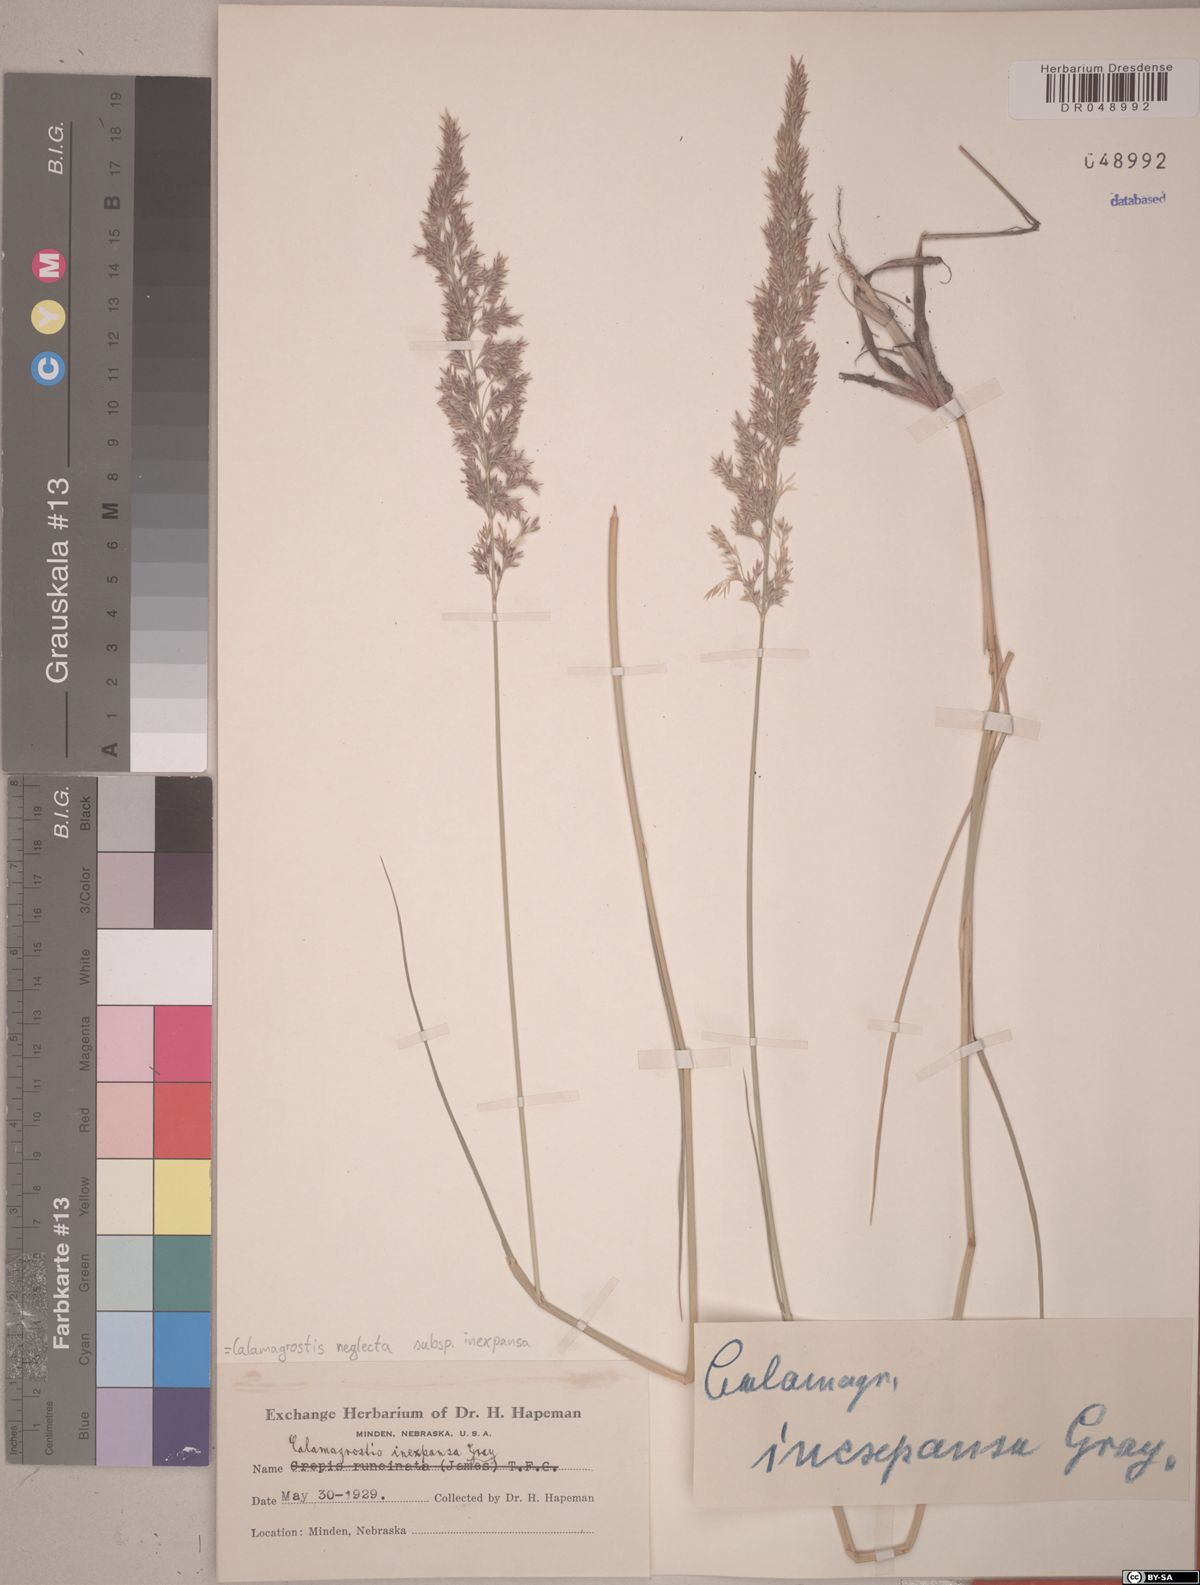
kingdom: Plantae
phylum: Tracheophyta
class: Liliopsida
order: Poales
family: Poaceae
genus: Calamagrostis
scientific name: Calamagrostis inexpansa
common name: Northern reedgrass
